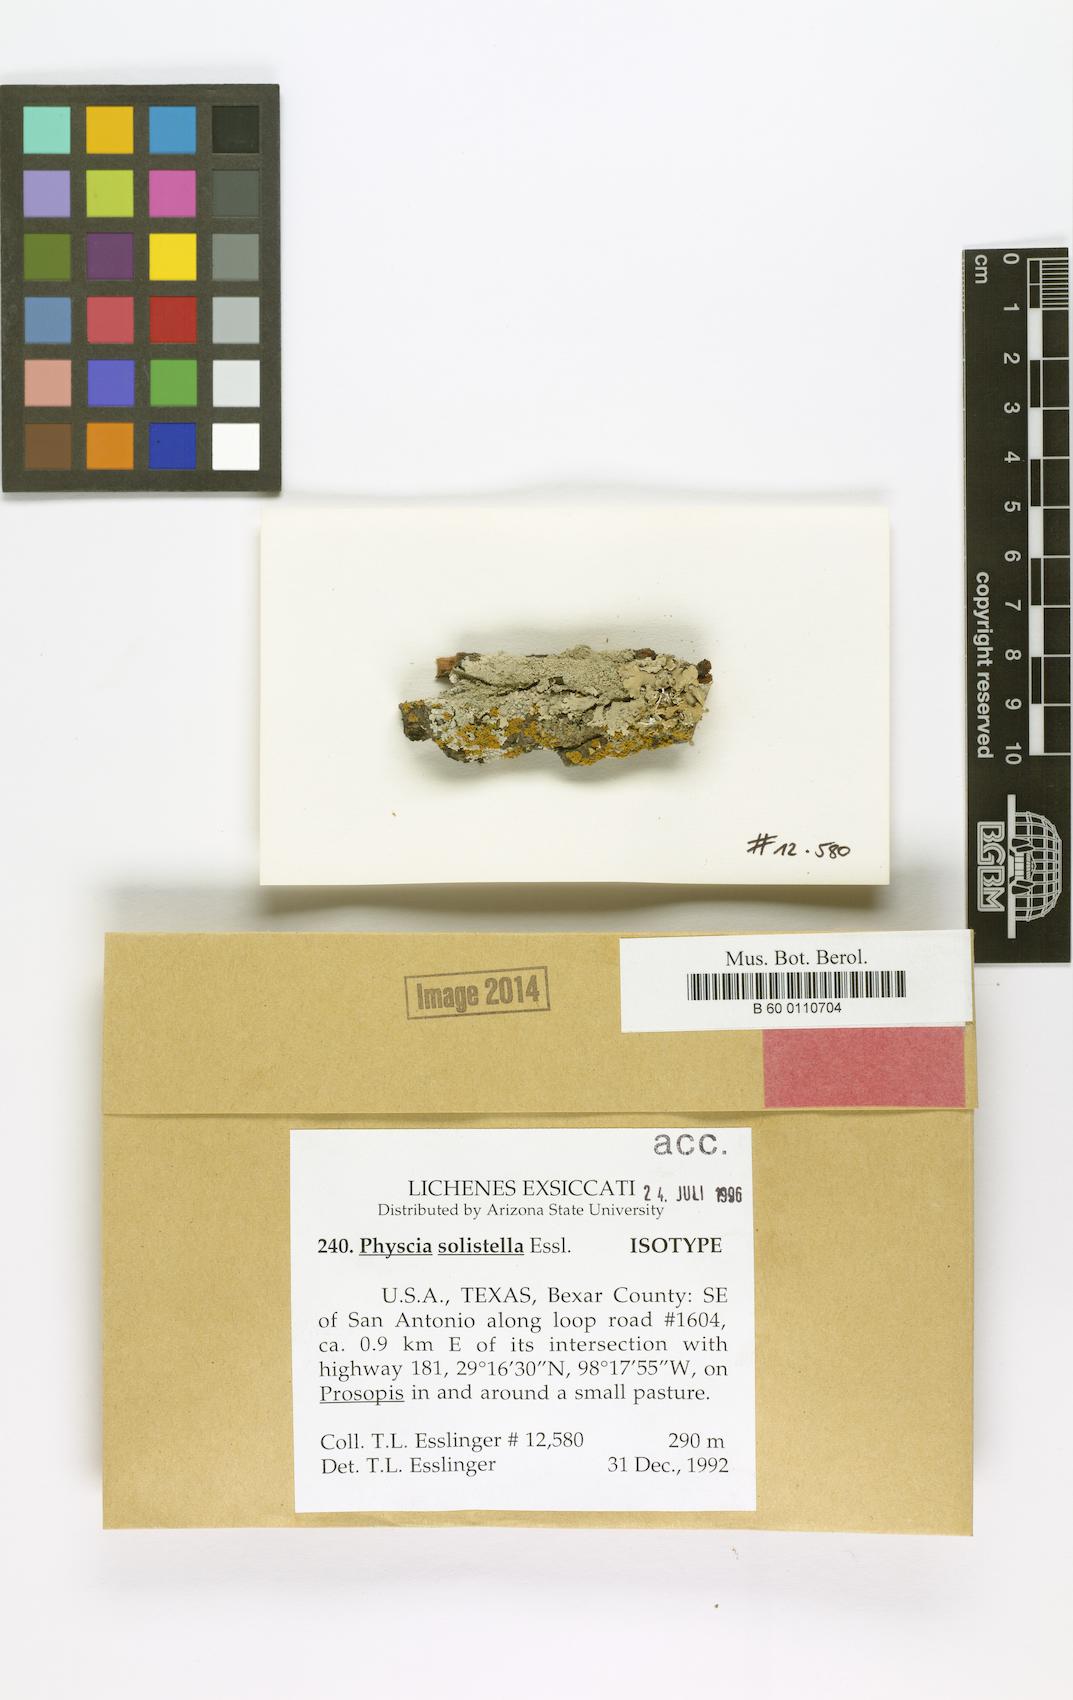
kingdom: Fungi
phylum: Ascomycota
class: Lecanoromycetes
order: Caliciales
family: Physciaceae
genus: Physcia
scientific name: Physcia solistella
